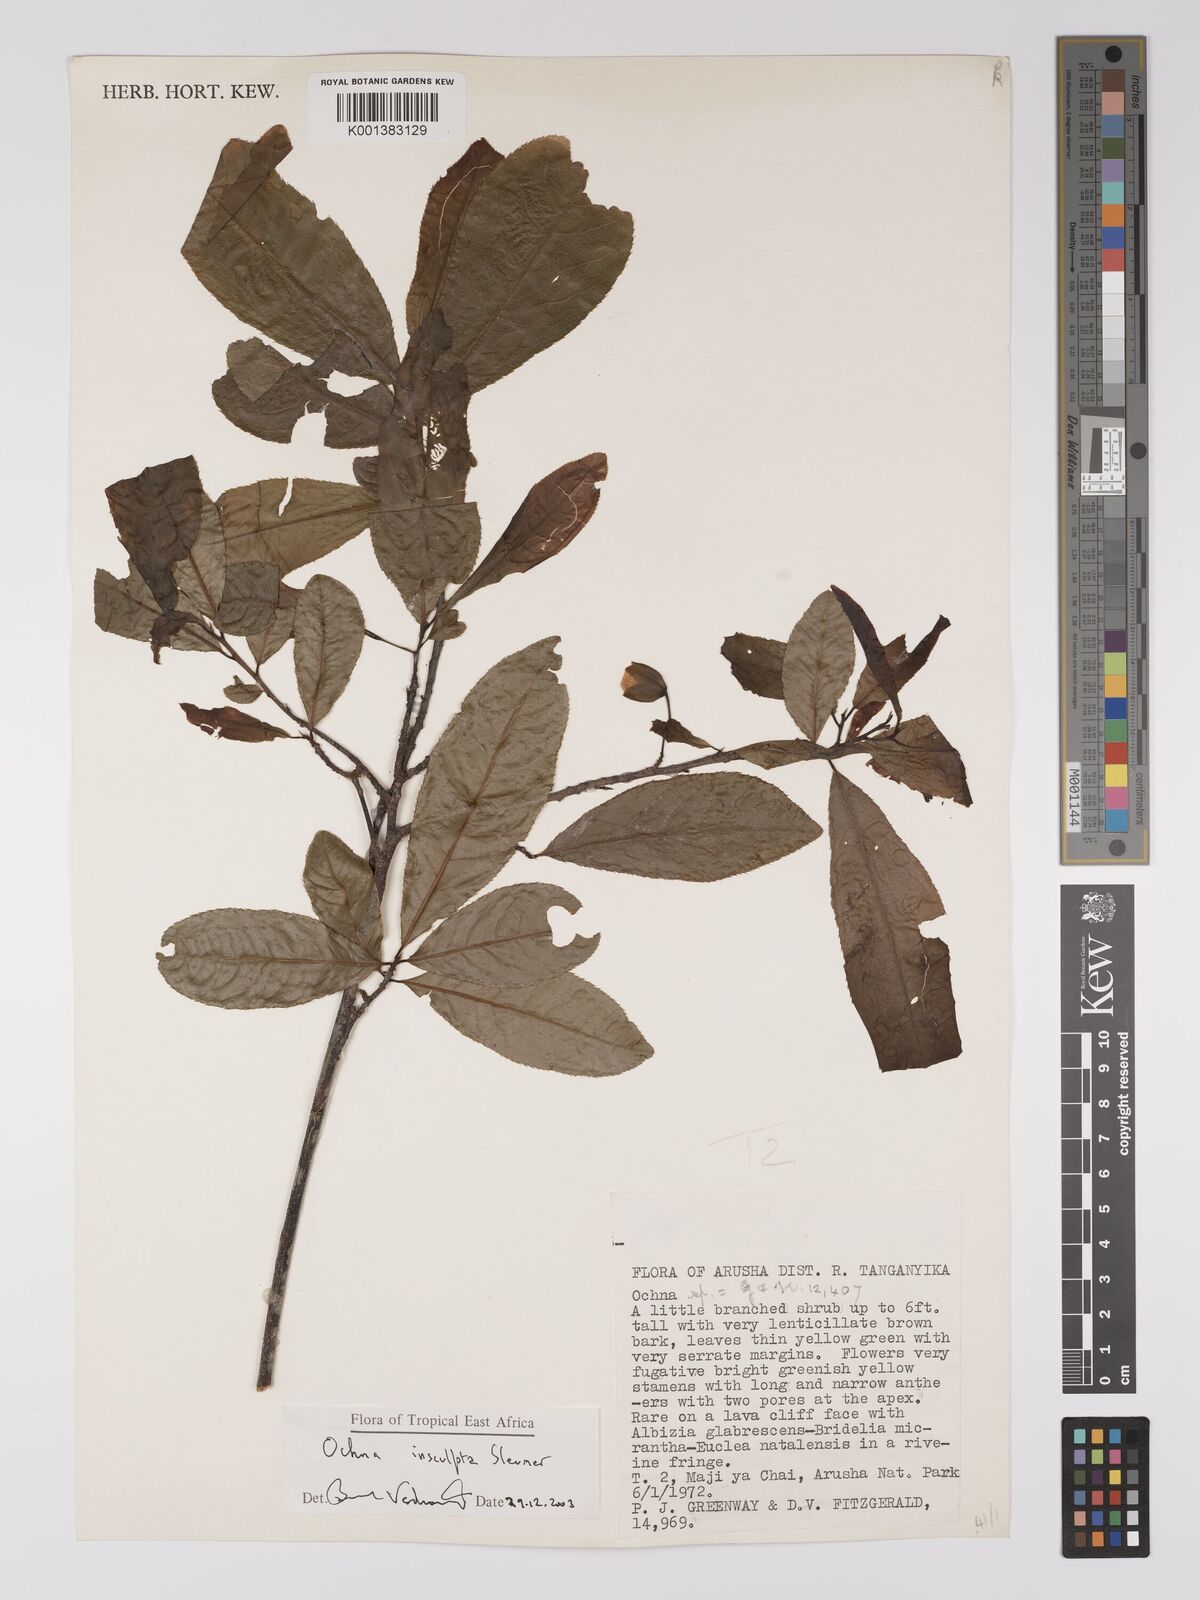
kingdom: Plantae
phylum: Tracheophyta
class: Magnoliopsida
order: Malpighiales
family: Ochnaceae
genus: Ochna
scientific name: Ochna insculpta
